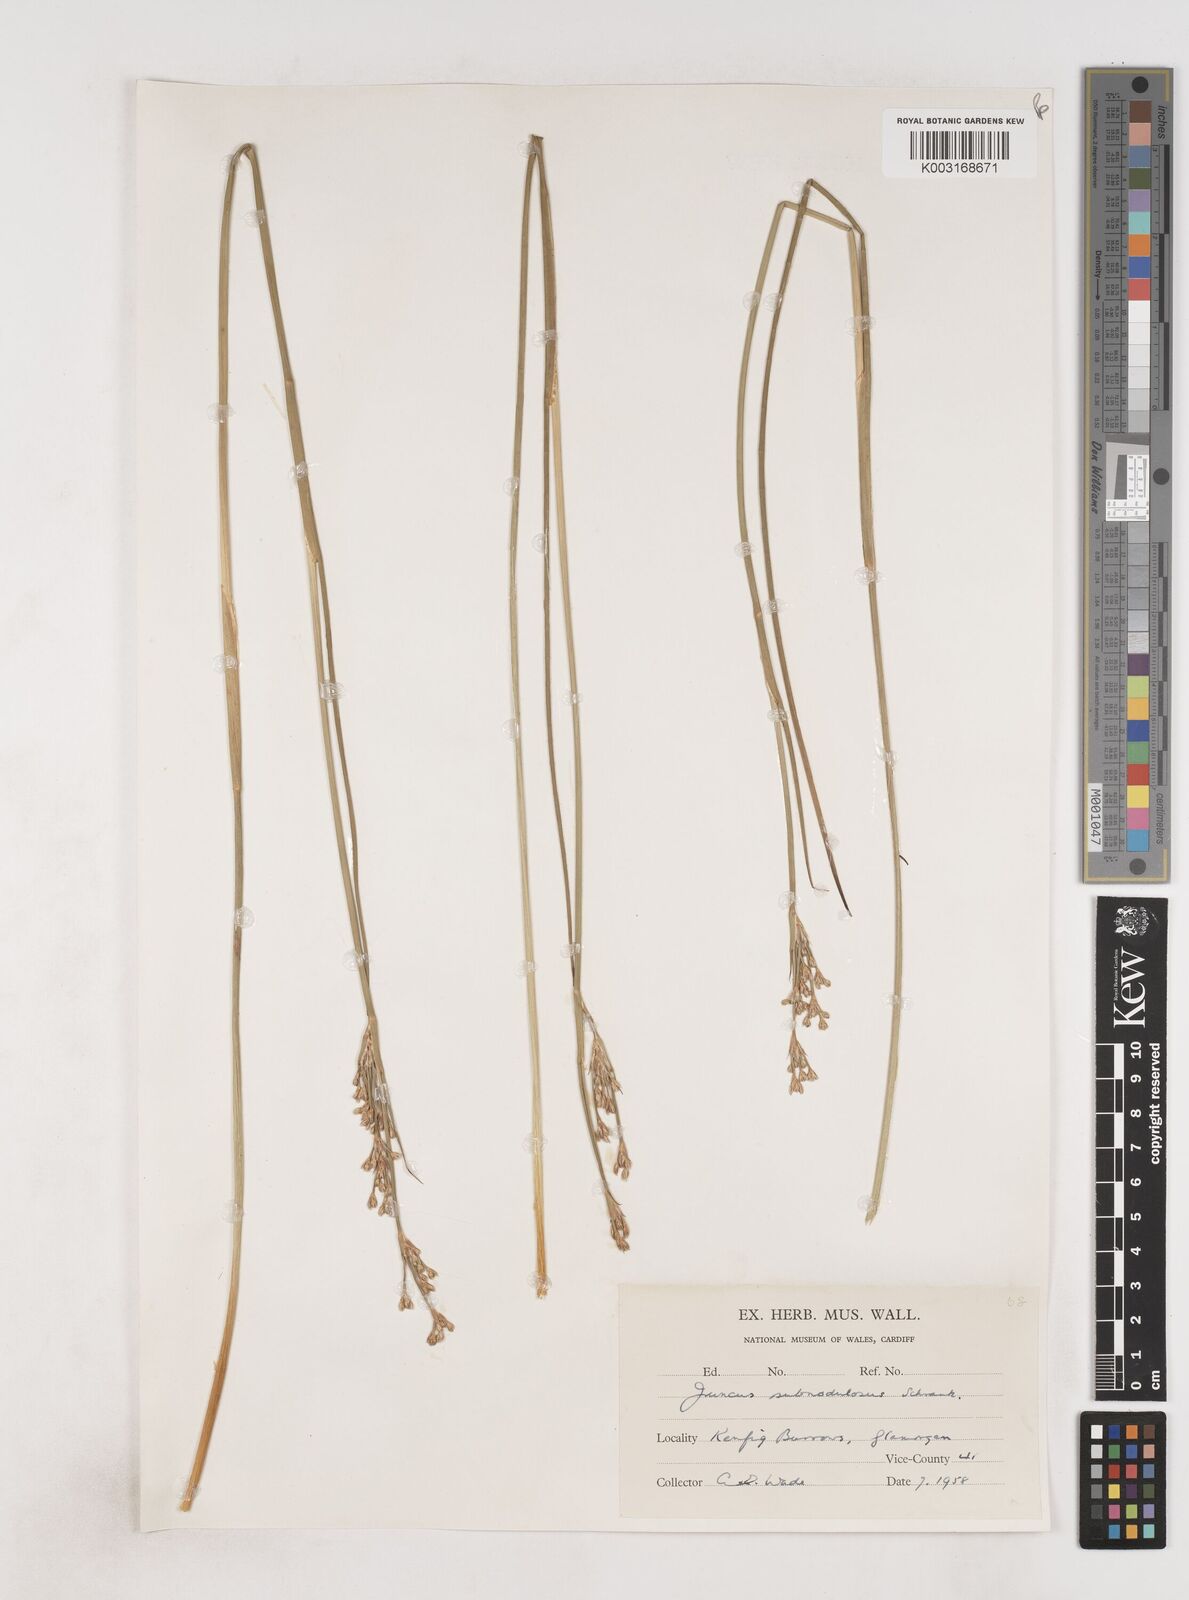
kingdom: Plantae
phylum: Tracheophyta
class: Liliopsida
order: Poales
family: Juncaceae
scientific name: Juncaceae
